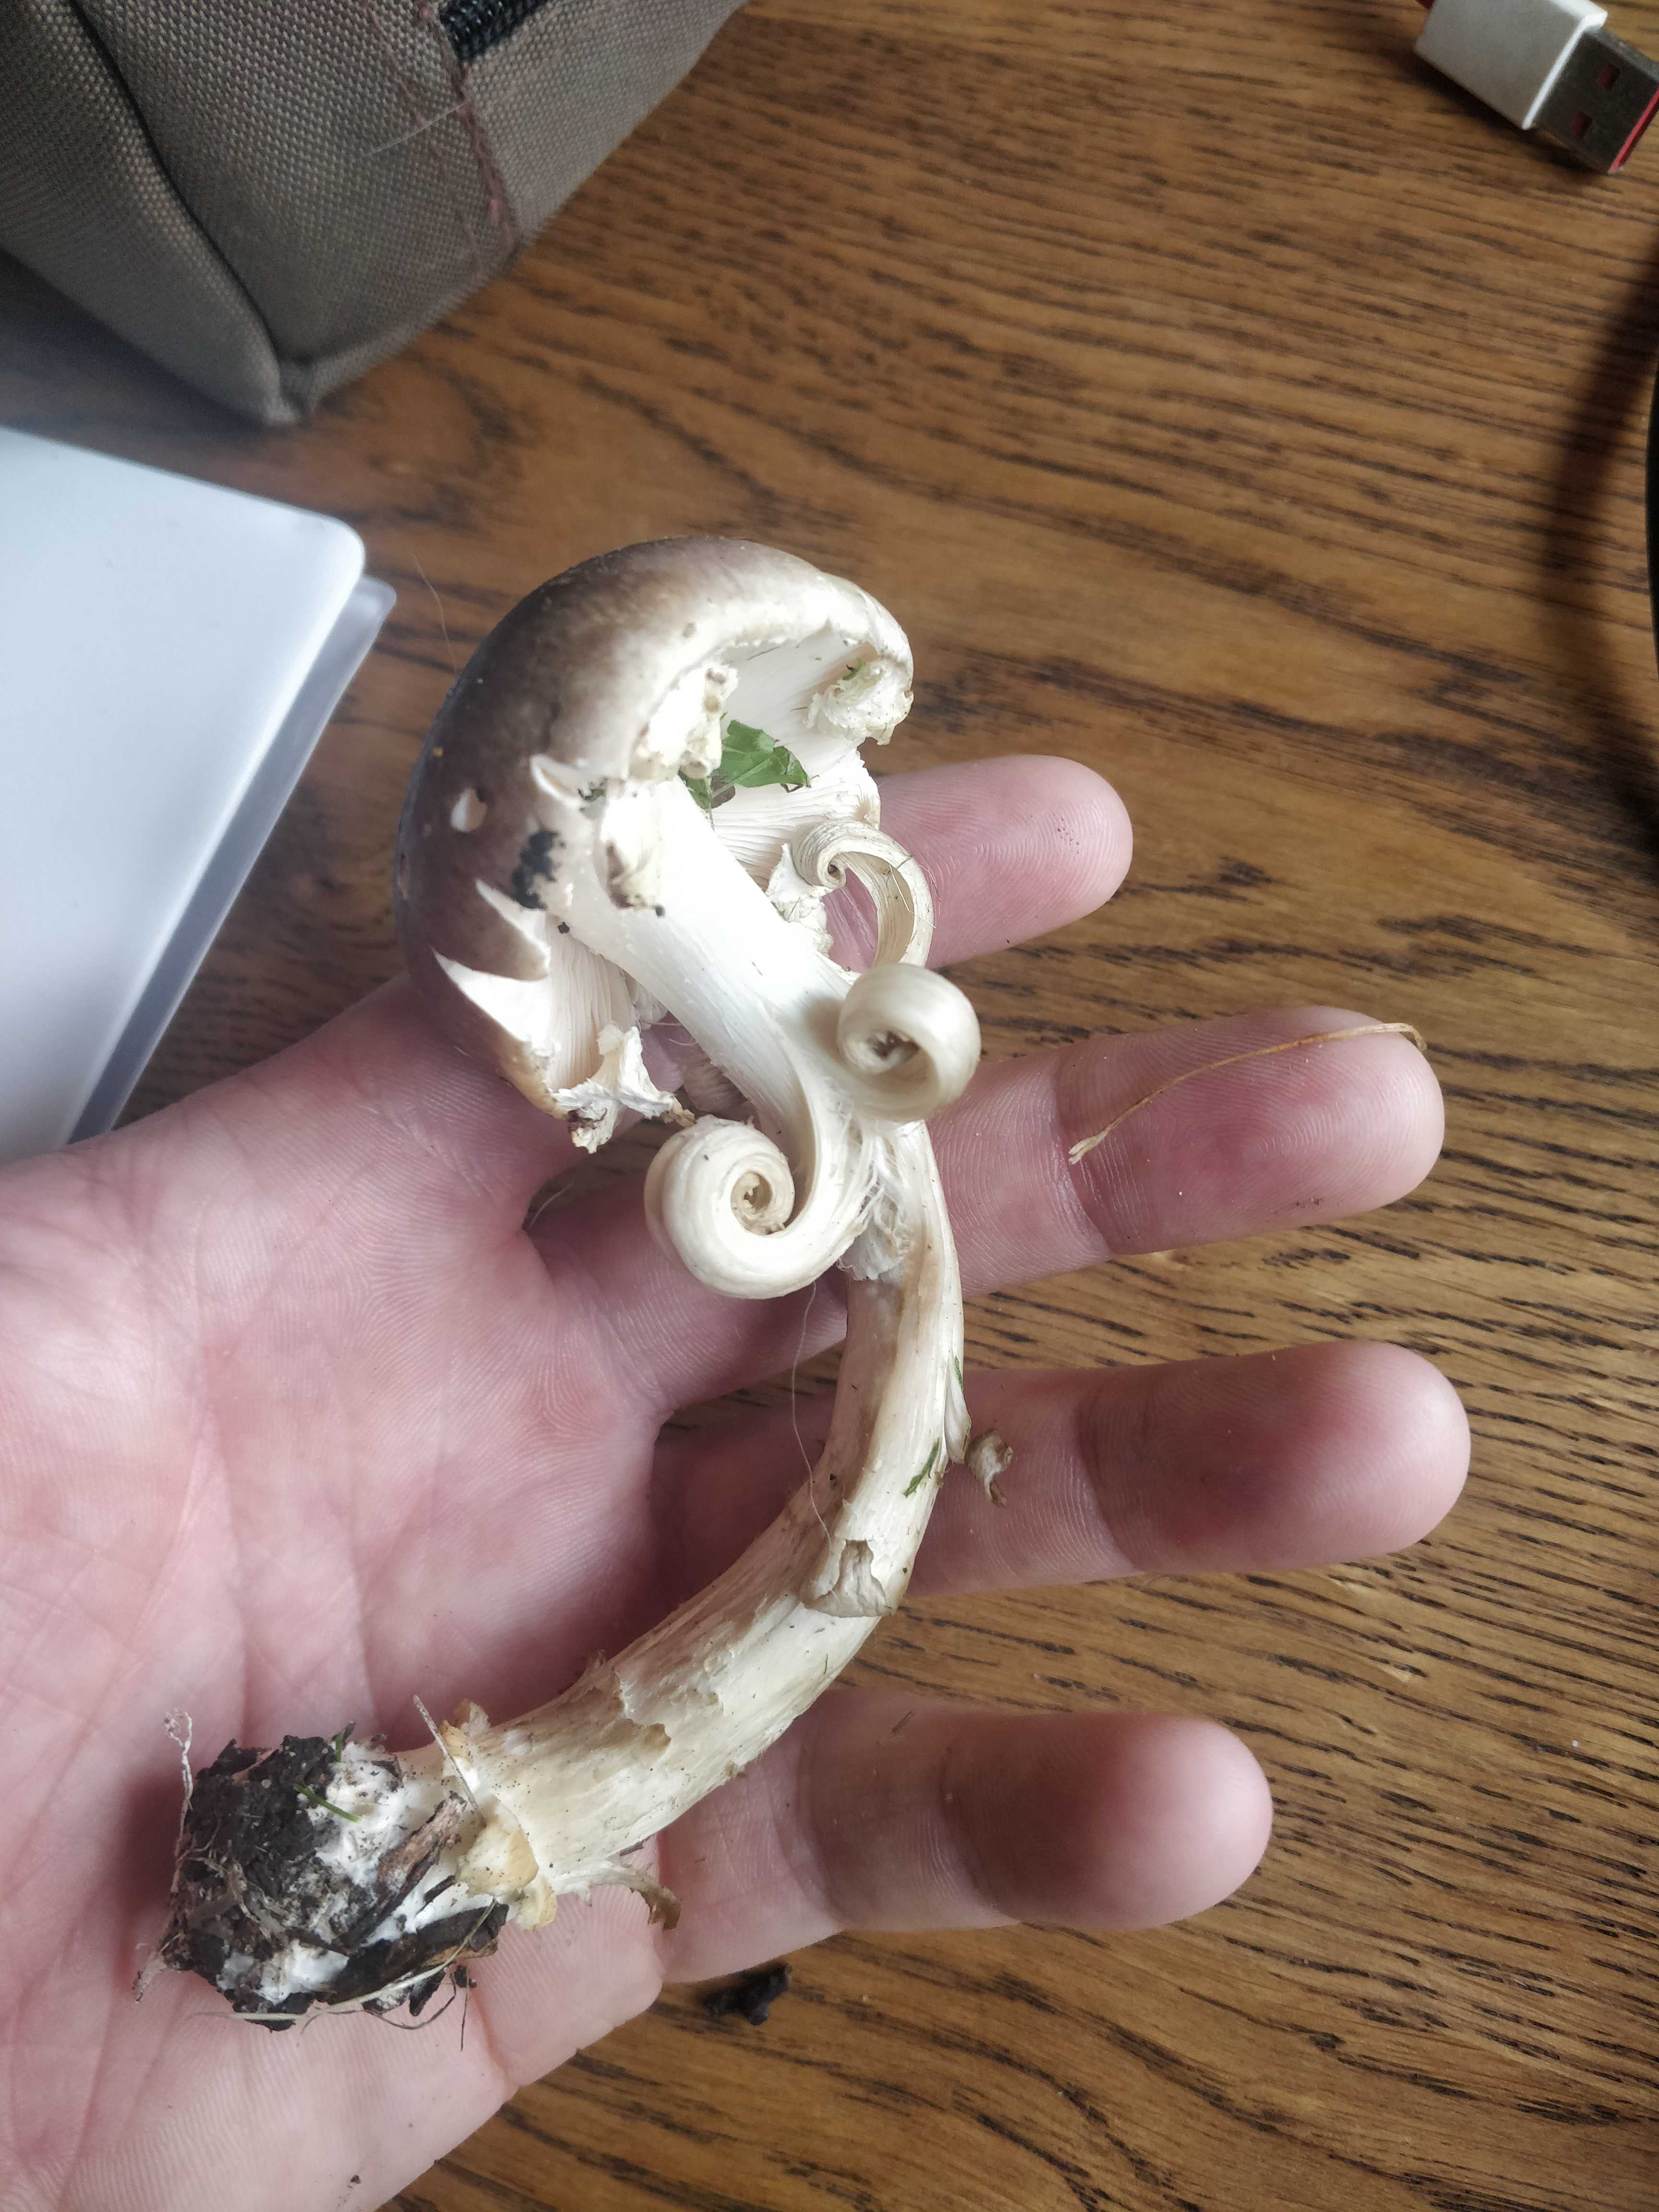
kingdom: Fungi
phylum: Basidiomycota
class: Agaricomycetes
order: Agaricales
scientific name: Agaricales
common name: champignonordenen
